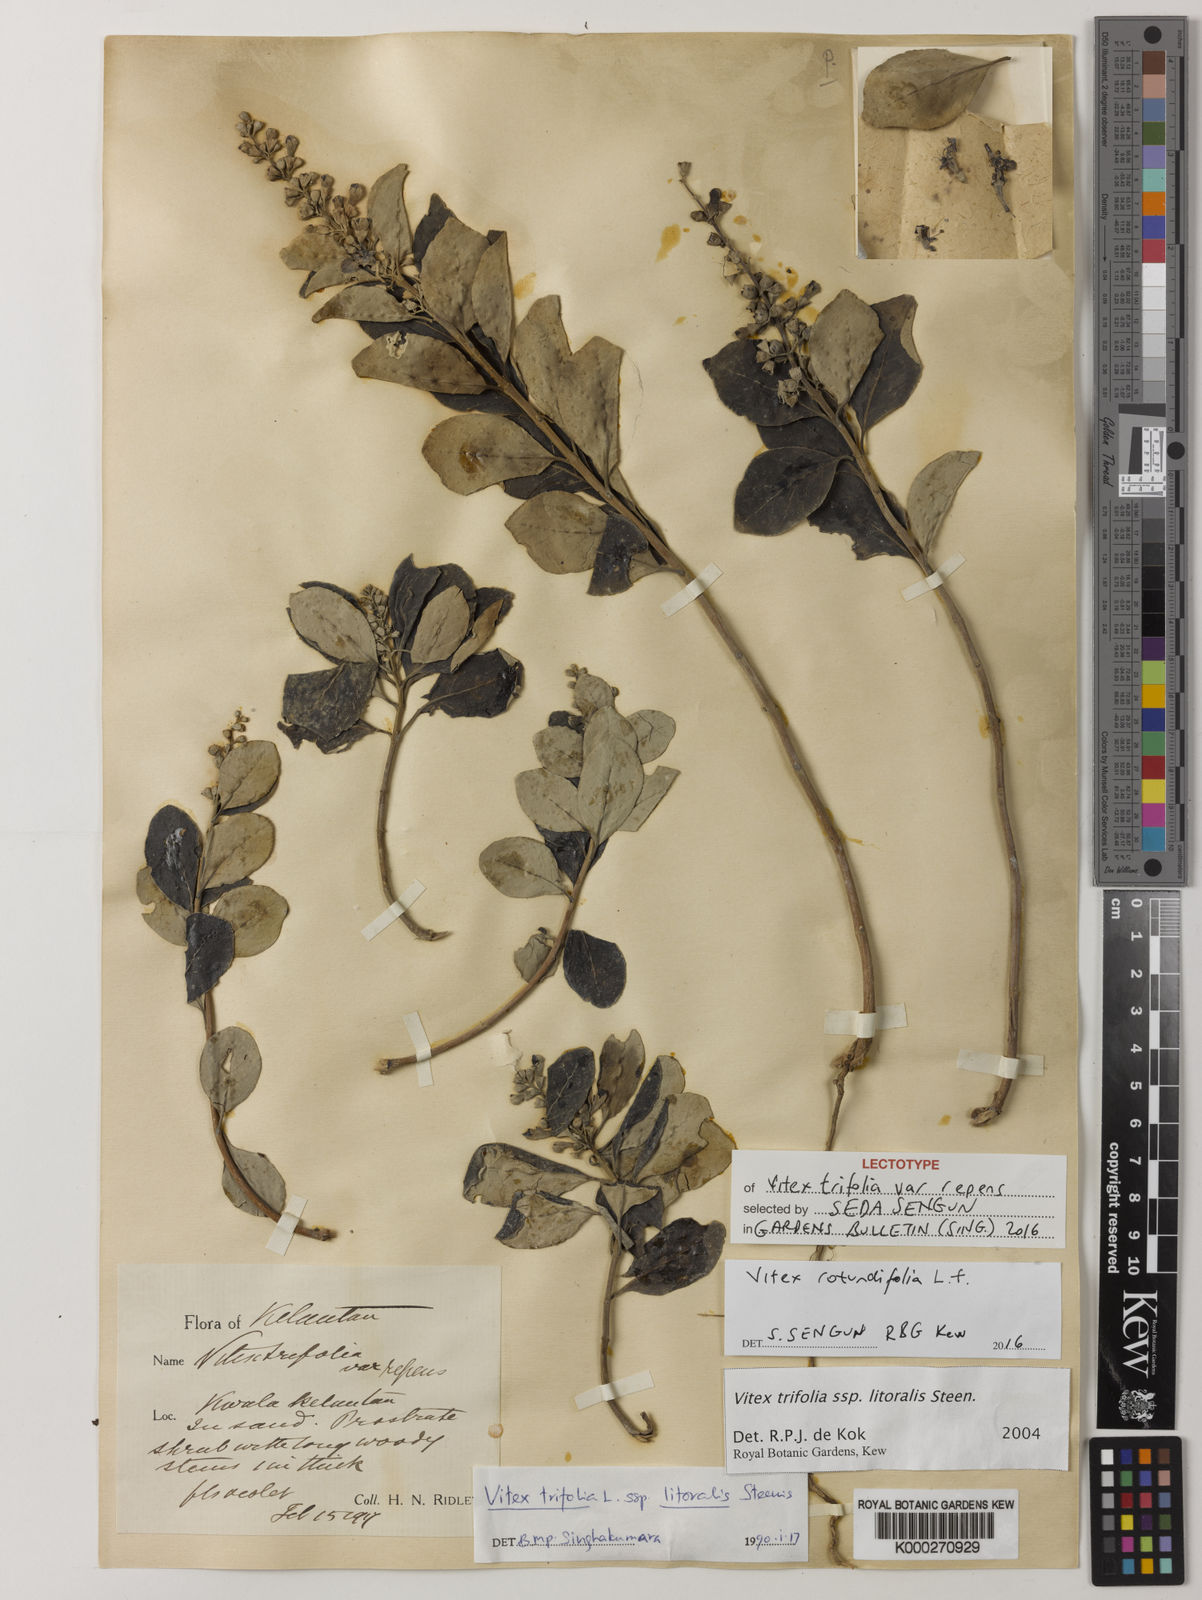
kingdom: Plantae
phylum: Tracheophyta
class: Magnoliopsida
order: Lamiales
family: Lamiaceae
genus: Vitex
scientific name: Vitex rotundifolia
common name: Beach vitex
